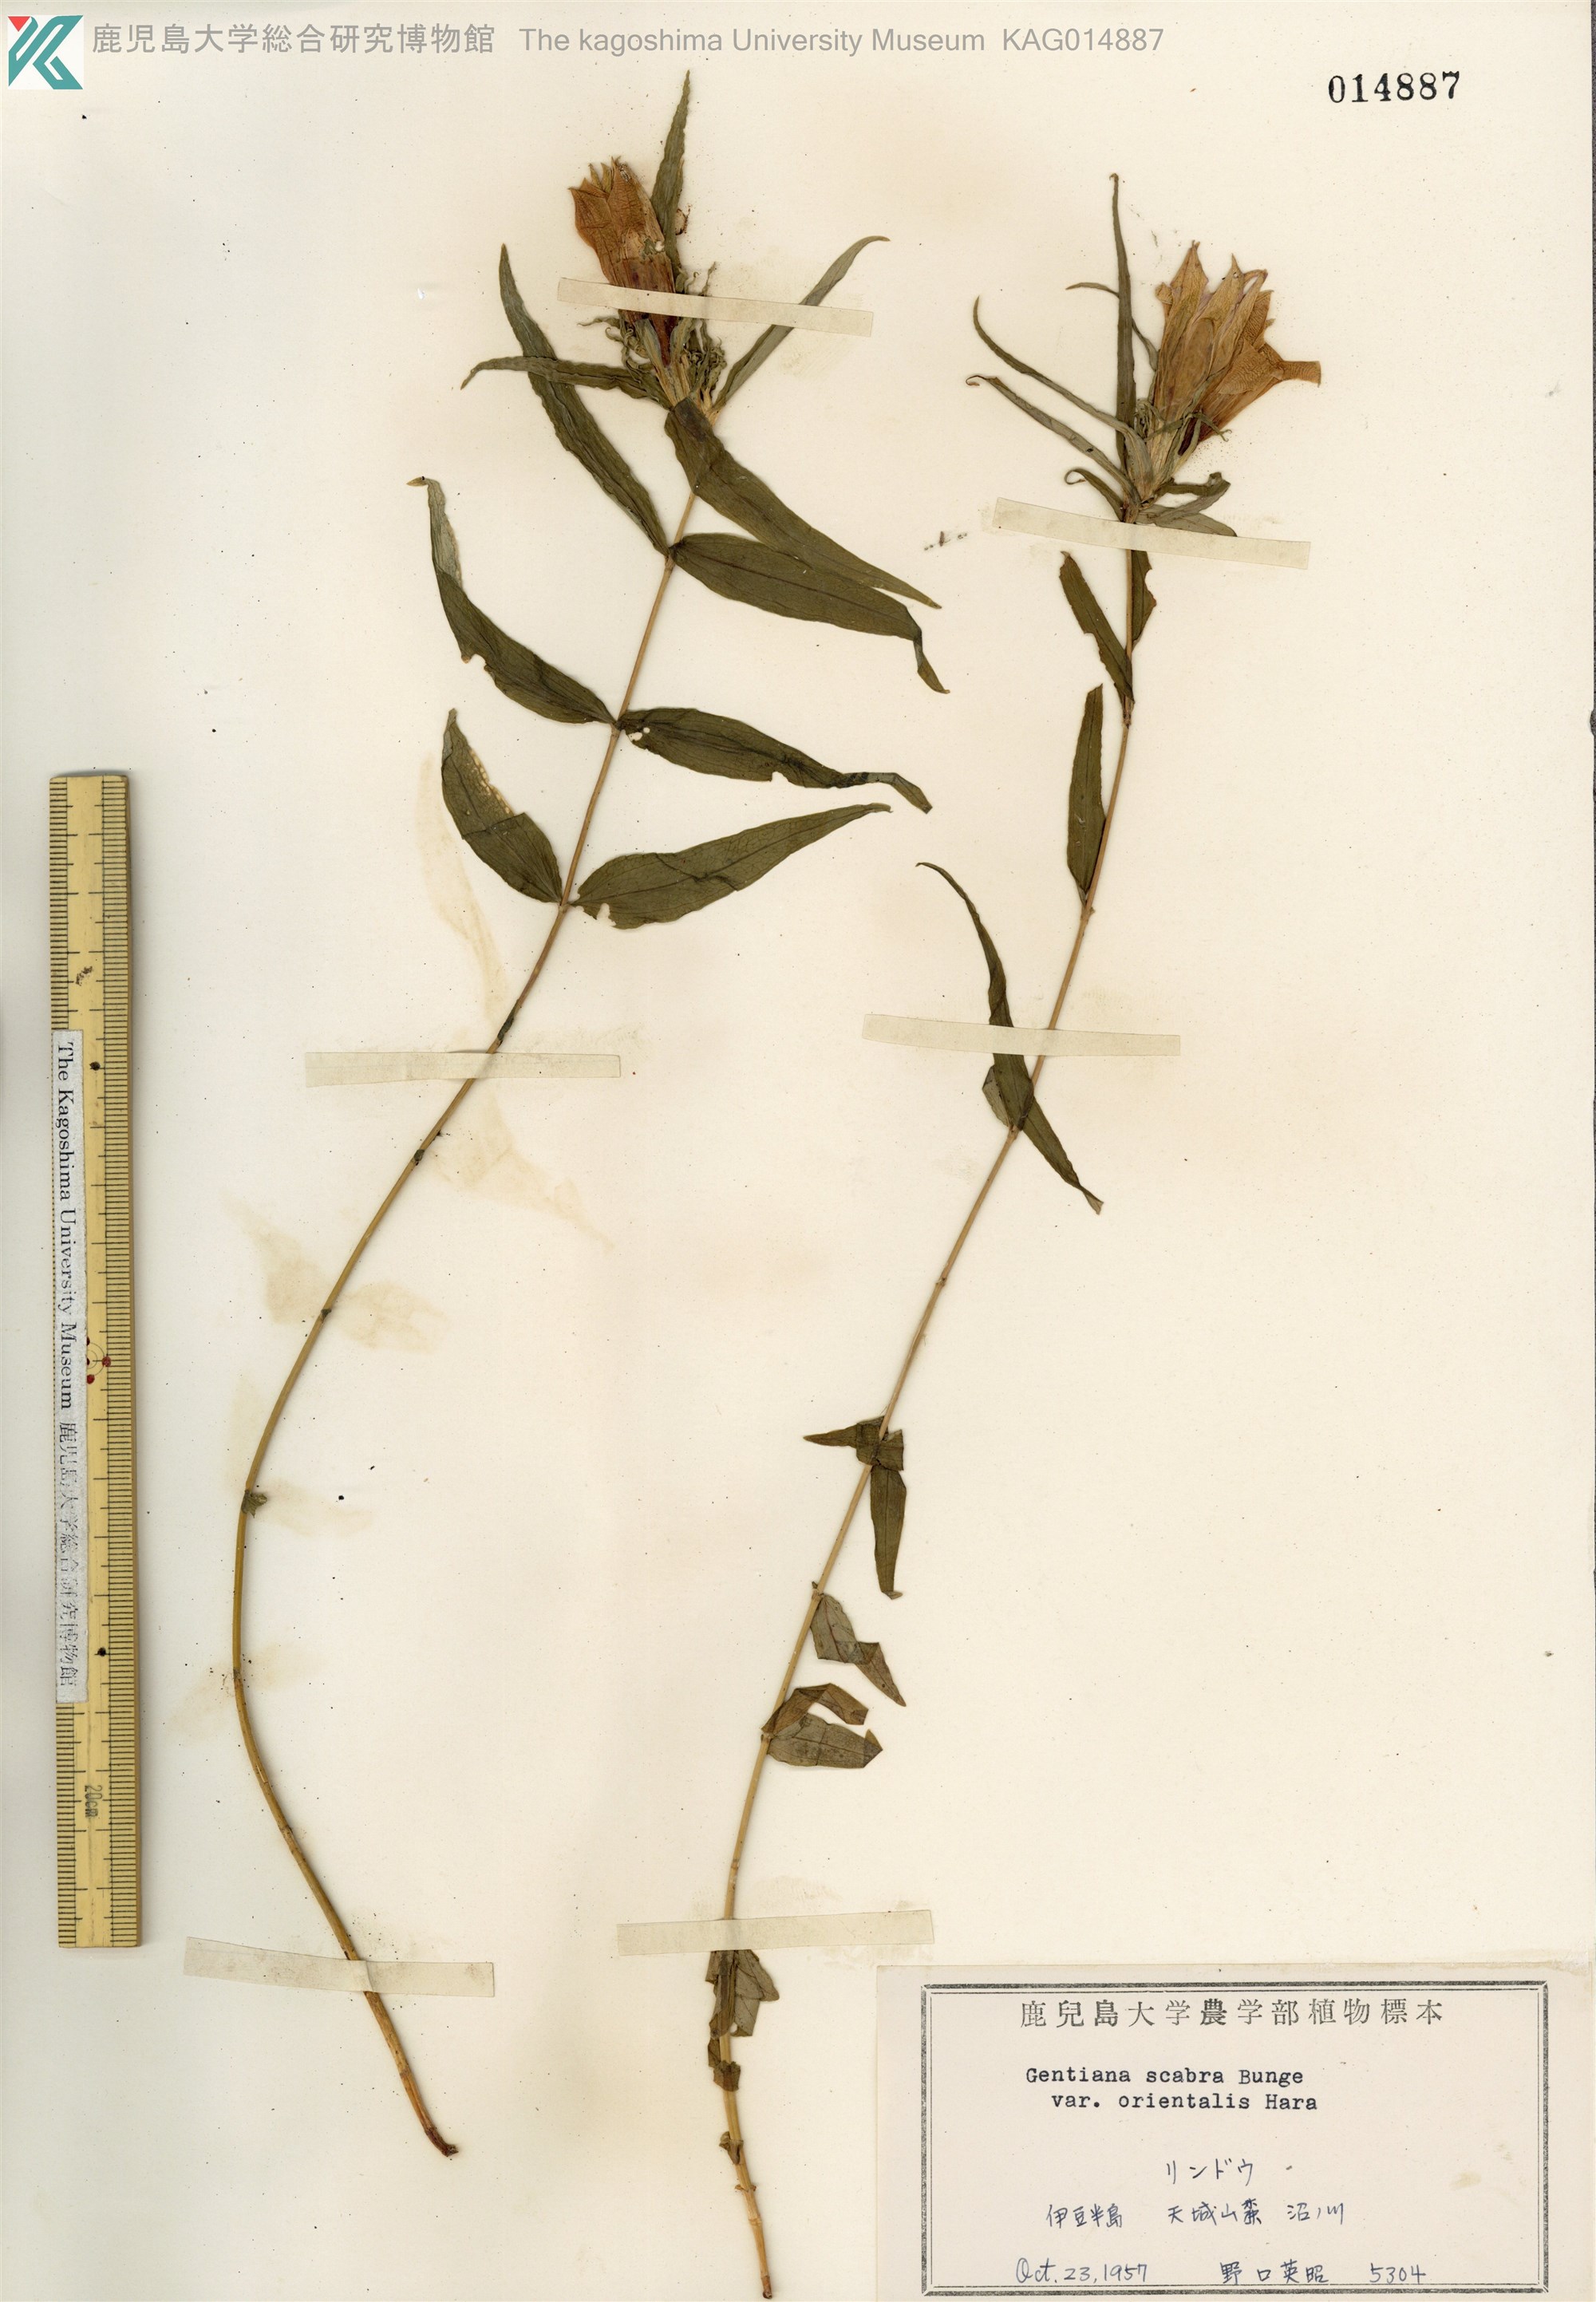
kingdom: Plantae
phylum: Tracheophyta
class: Magnoliopsida
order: Gentianales
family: Gentianaceae
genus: Gentiana
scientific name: Gentiana scabra
